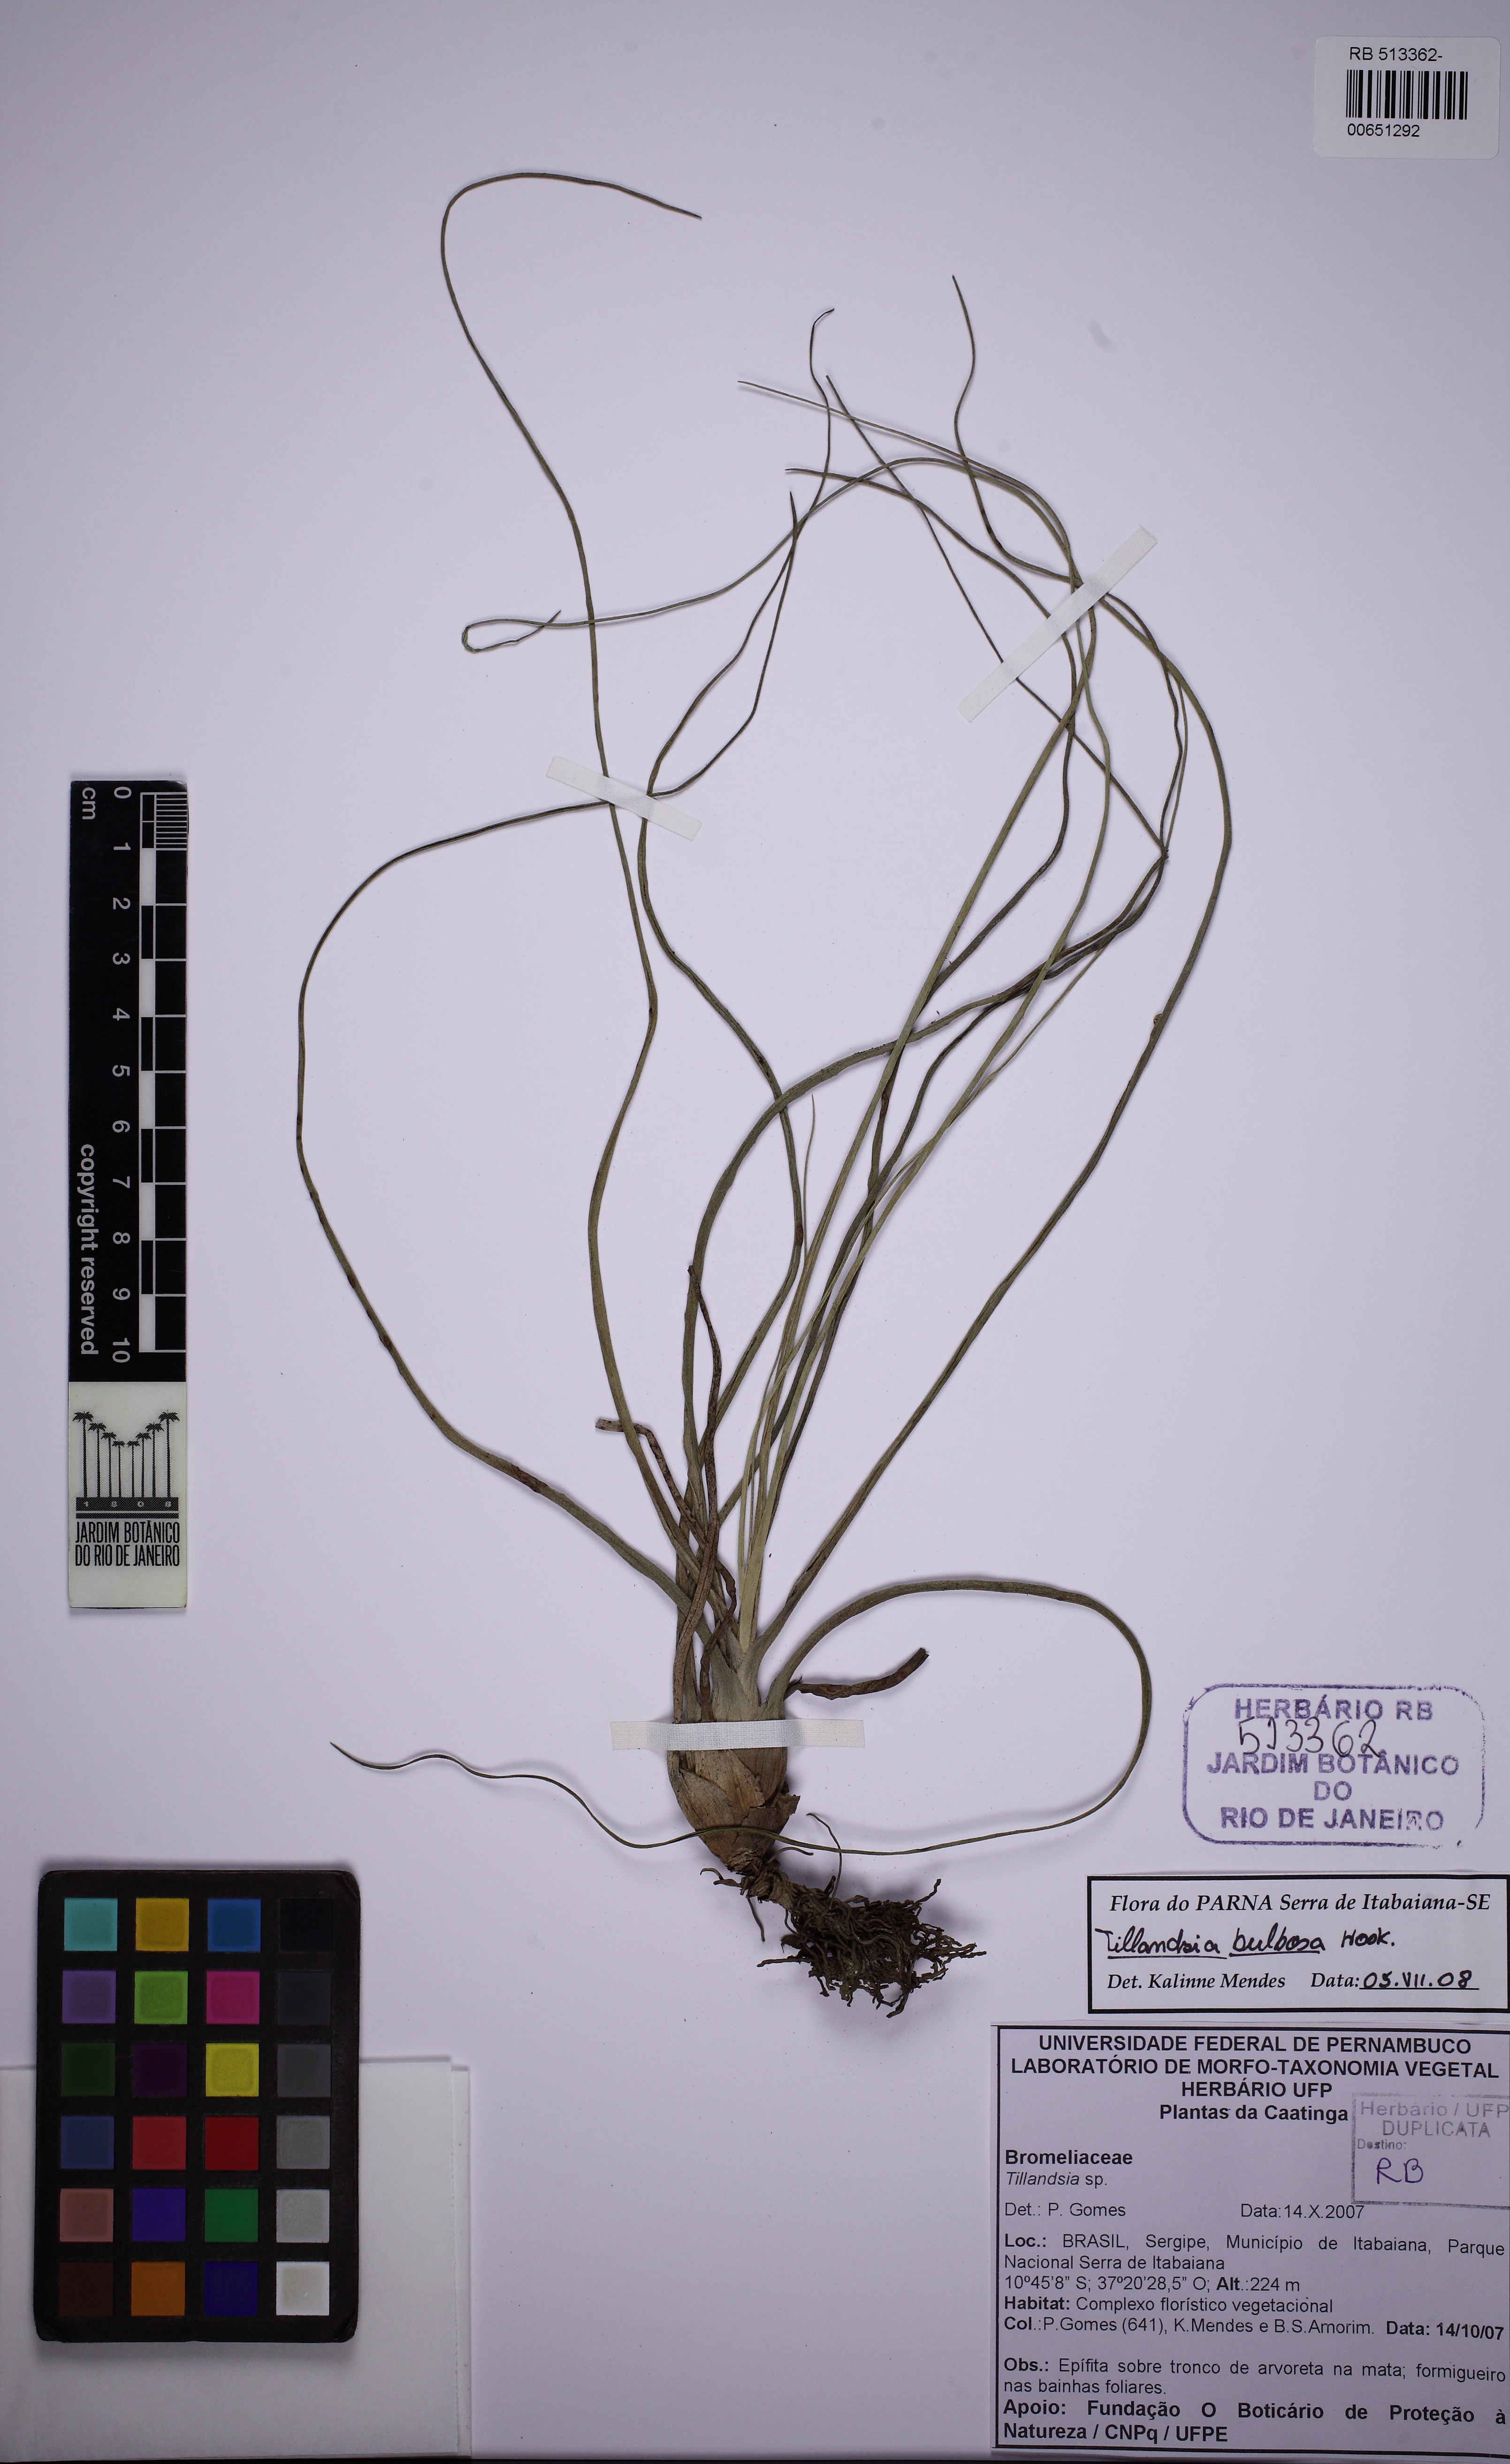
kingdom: Plantae
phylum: Tracheophyta
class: Liliopsida
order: Poales
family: Bromeliaceae
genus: Tillandsia
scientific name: Tillandsia bulbosa
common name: Bulbous airplant
